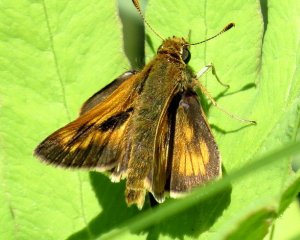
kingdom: Animalia
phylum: Arthropoda
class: Insecta
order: Lepidoptera
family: Hesperiidae
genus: Polites
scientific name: Polites
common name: Long Dash Skipper
